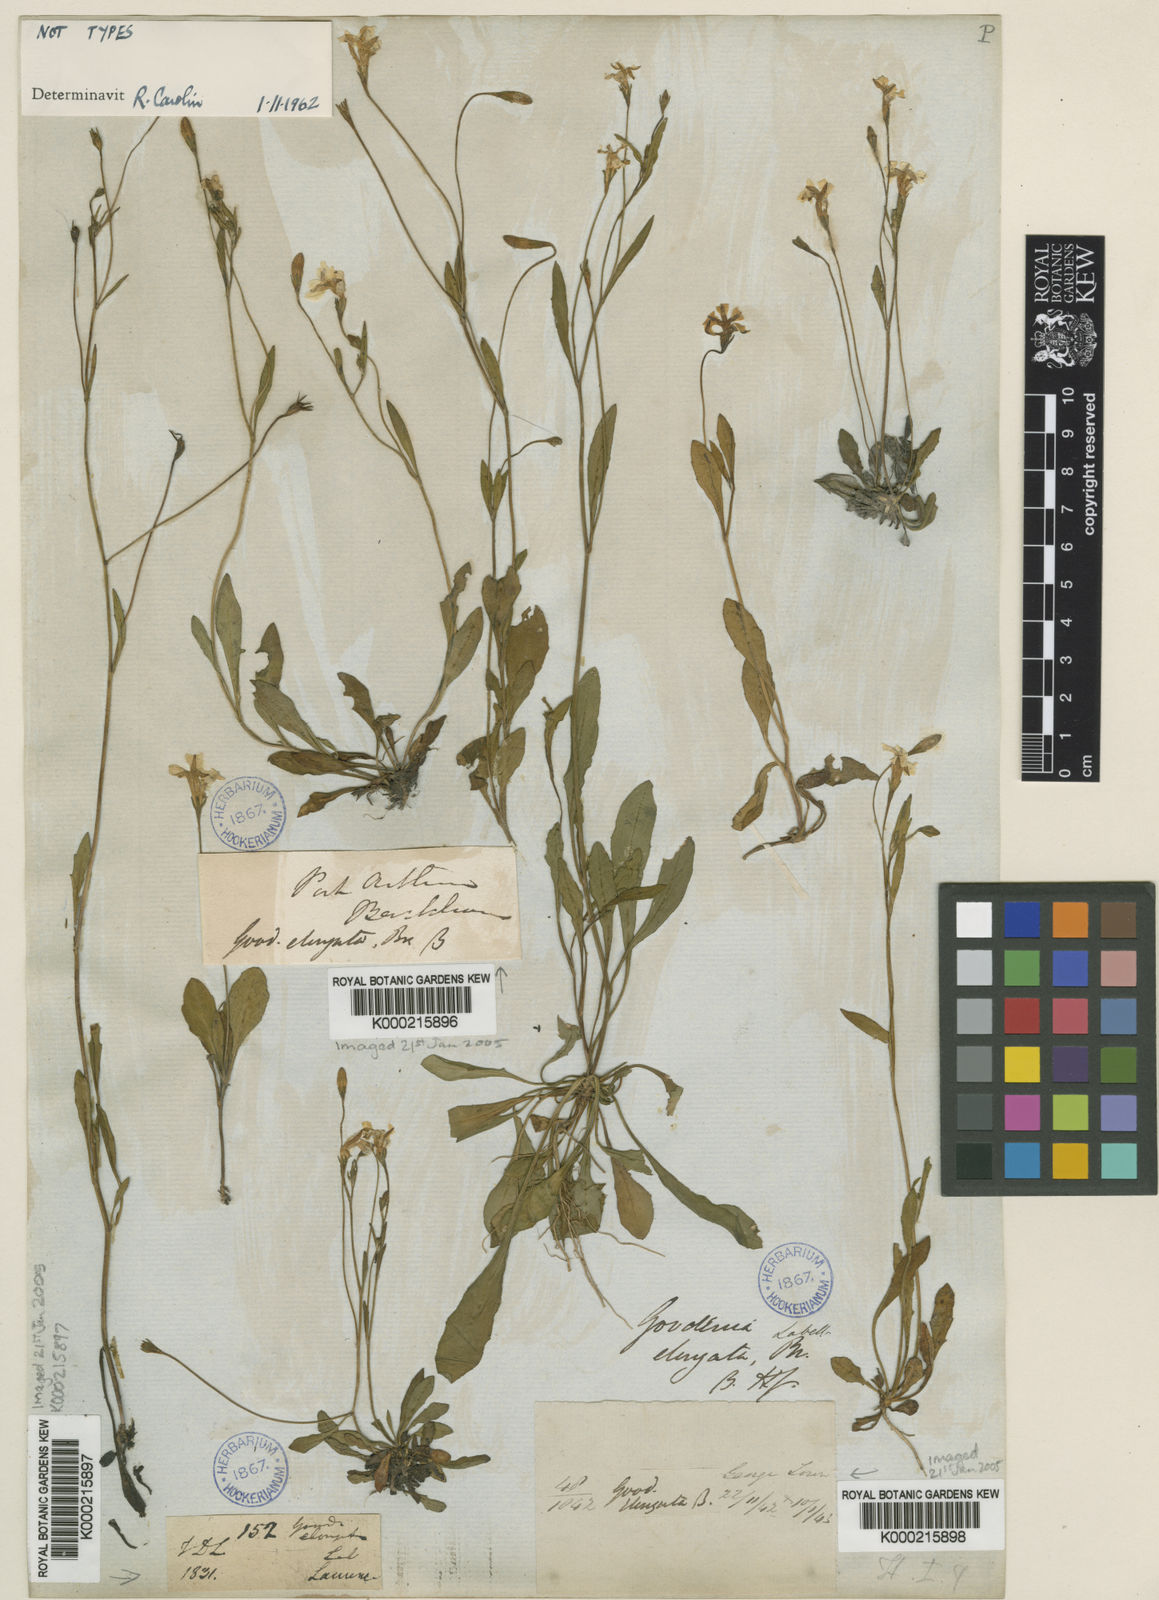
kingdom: Plantae
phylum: Tracheophyta
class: Magnoliopsida
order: Asterales
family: Goodeniaceae
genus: Goodenia
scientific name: Goodenia elongata
